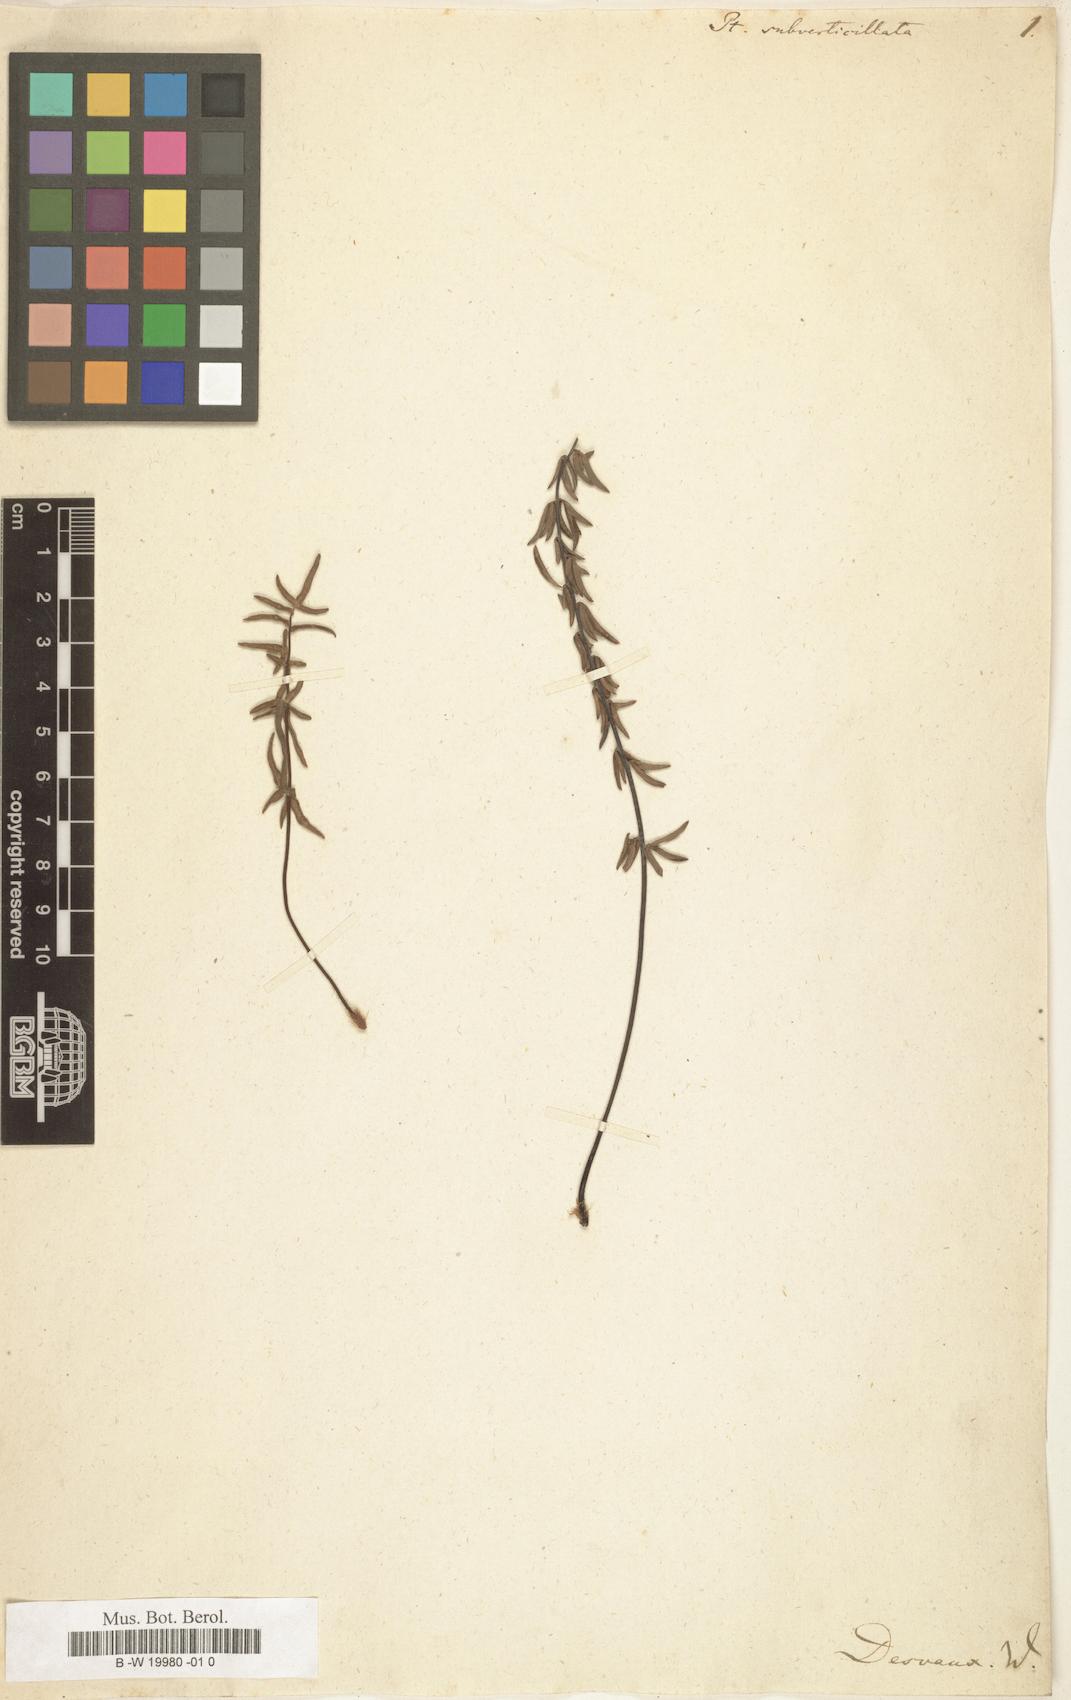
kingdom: Plantae
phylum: Tracheophyta
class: Polypodiopsida
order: Polypodiales
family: Pteridaceae
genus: Pellaea
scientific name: Pellaea ternifolia
